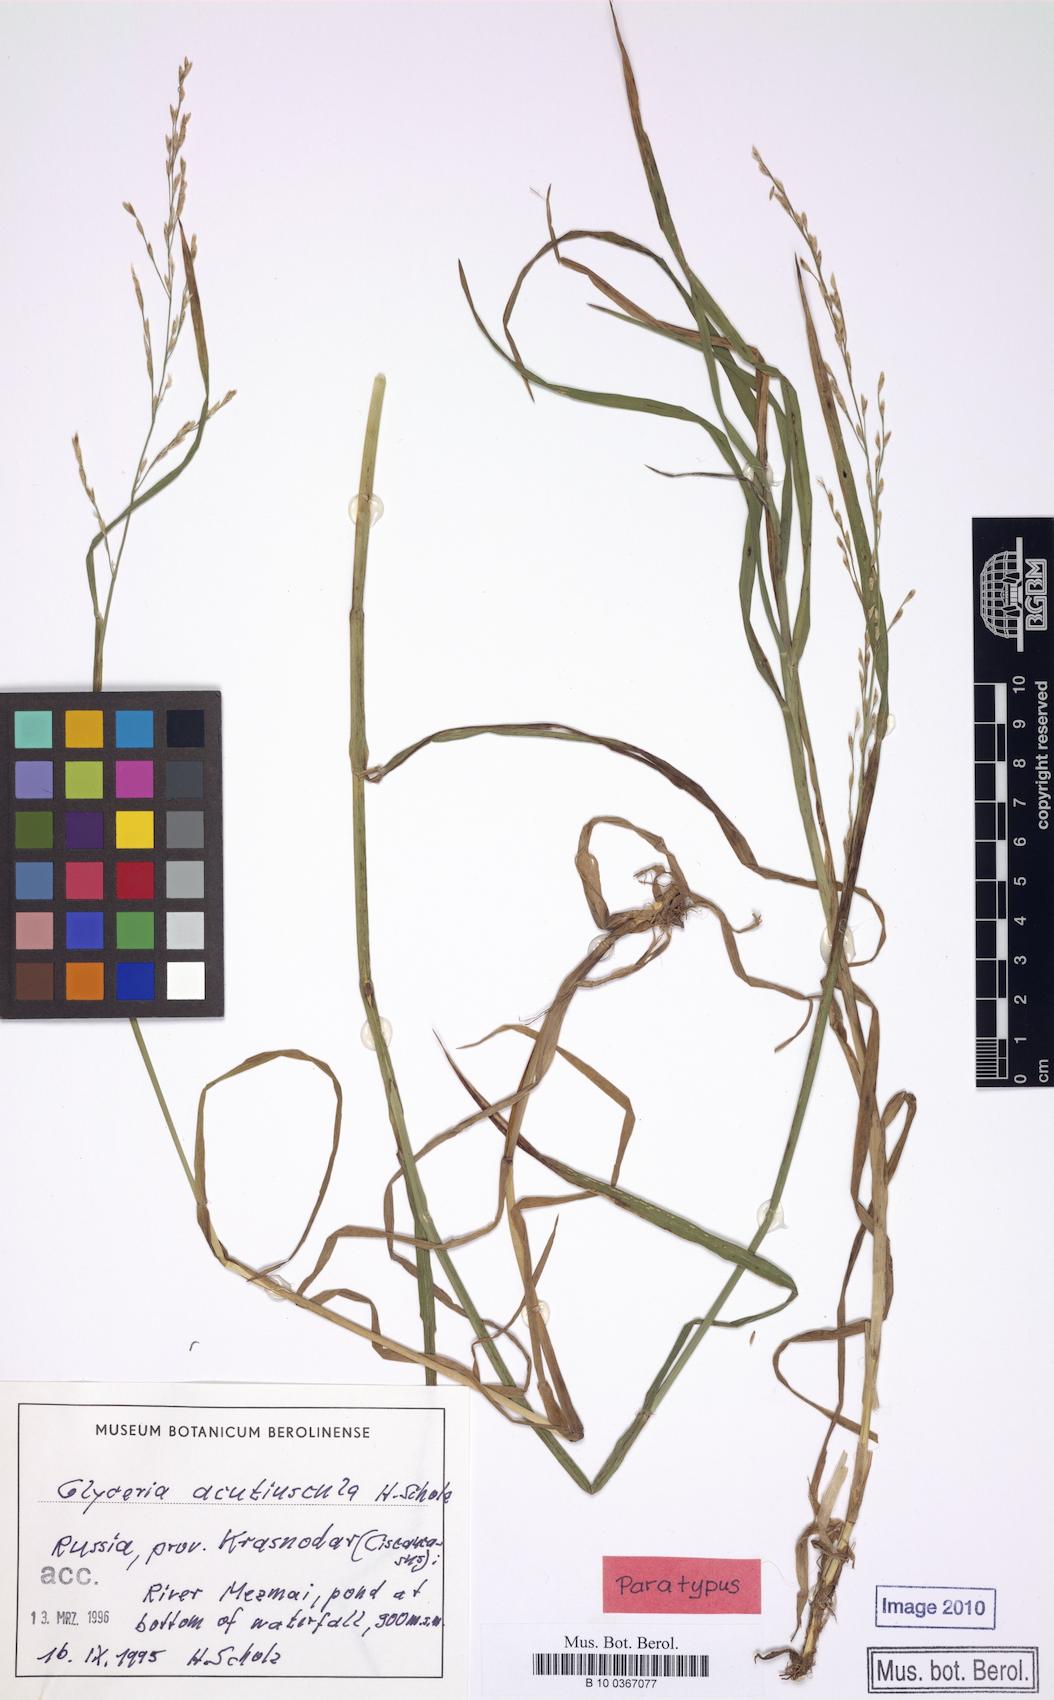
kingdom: Plantae
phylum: Tracheophyta
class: Liliopsida
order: Poales
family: Poaceae
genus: Glyceria
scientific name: Glyceria notata
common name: Plicate sweet-grass
